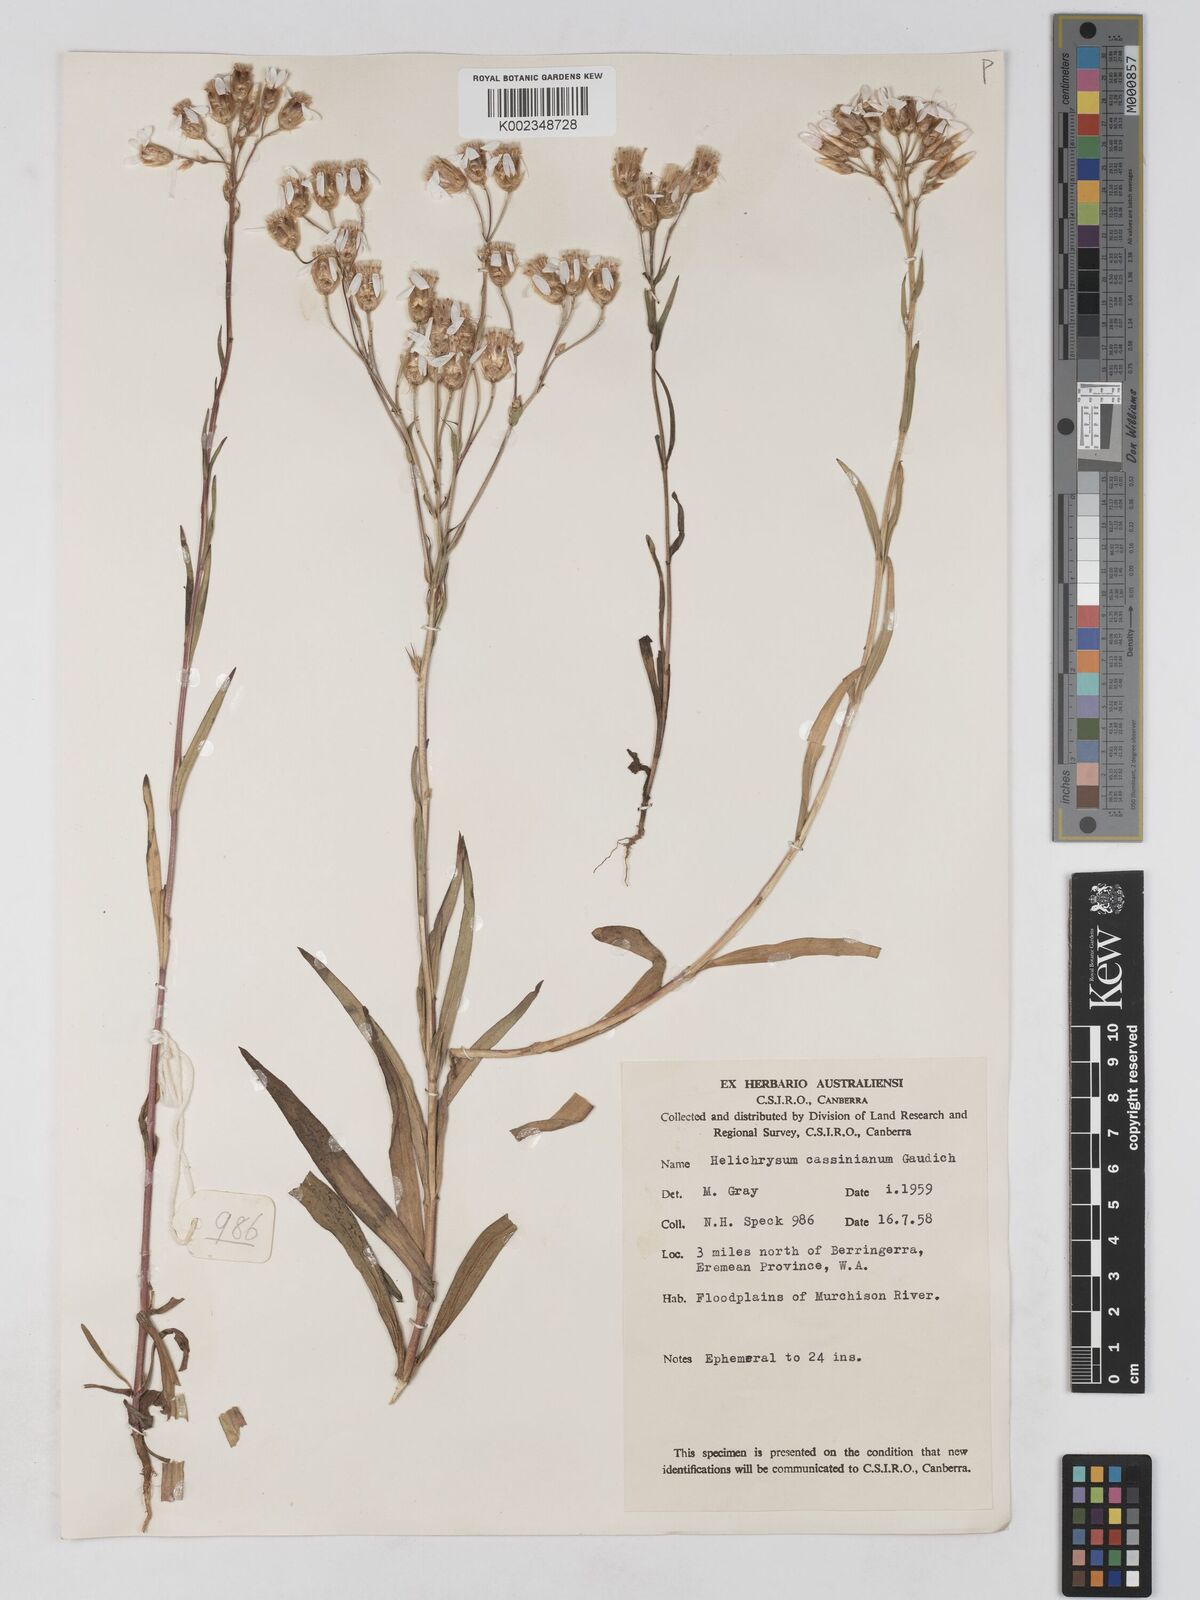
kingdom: Plantae
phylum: Tracheophyta
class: Magnoliopsida
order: Asterales
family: Asteraceae
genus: Schoenia
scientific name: Schoenia cassiniana
